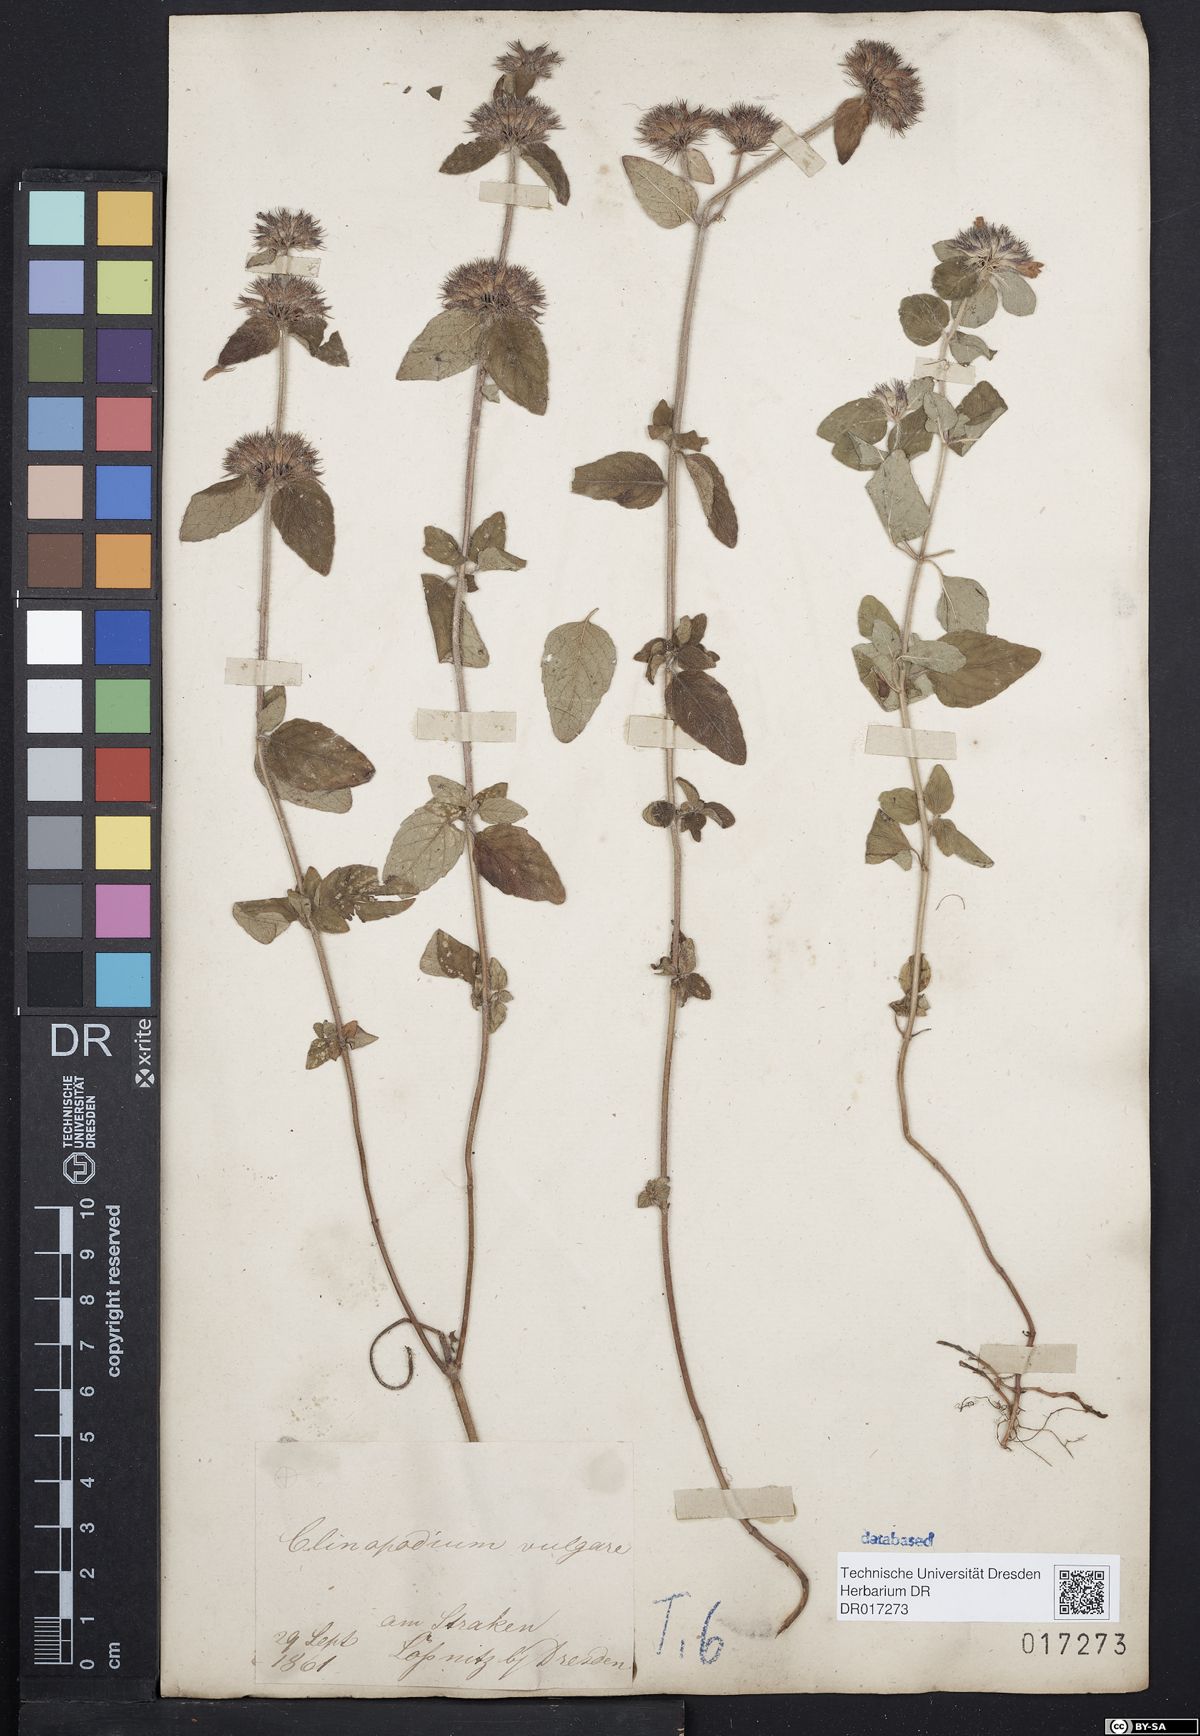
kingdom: Plantae
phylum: Tracheophyta
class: Magnoliopsida
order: Lamiales
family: Lamiaceae
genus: Clinopodium
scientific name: Clinopodium vulgare
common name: Wild basil
